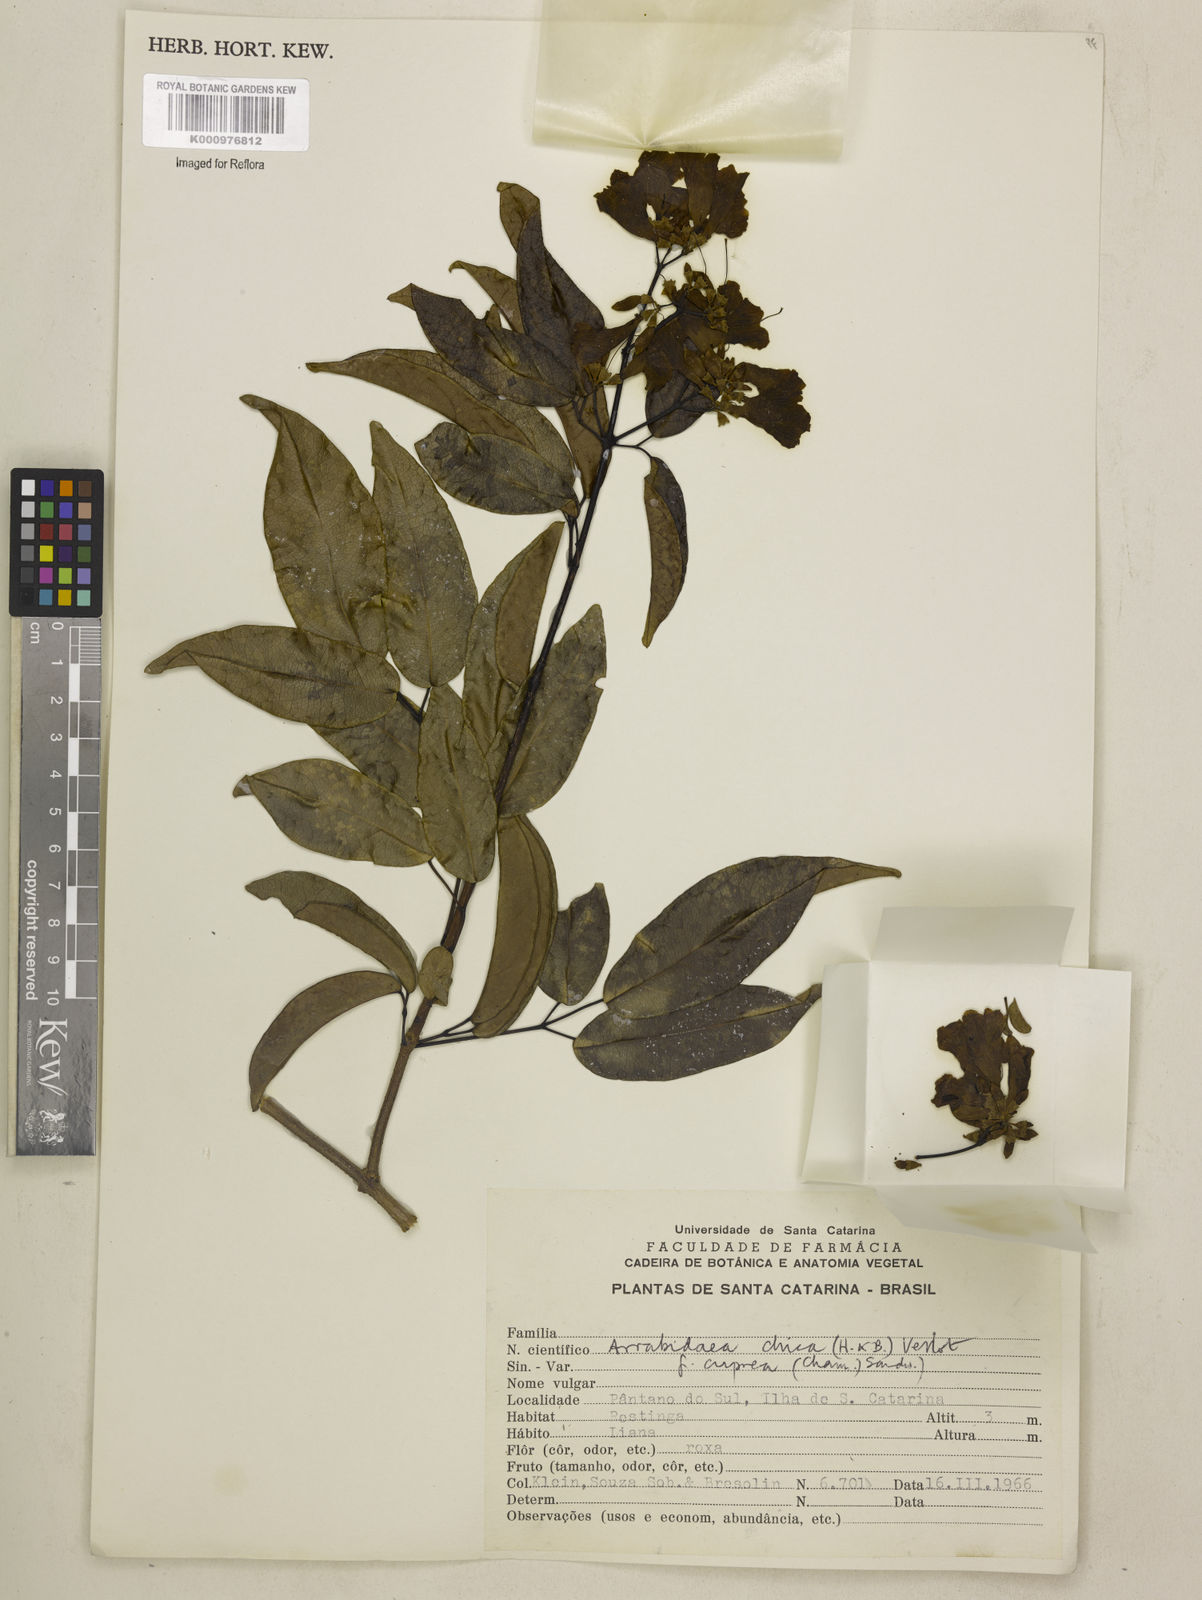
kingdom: Plantae
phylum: Tracheophyta
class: Magnoliopsida
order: Lamiales
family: Bignoniaceae
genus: Fridericia
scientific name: Fridericia chica
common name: Cricketvine
